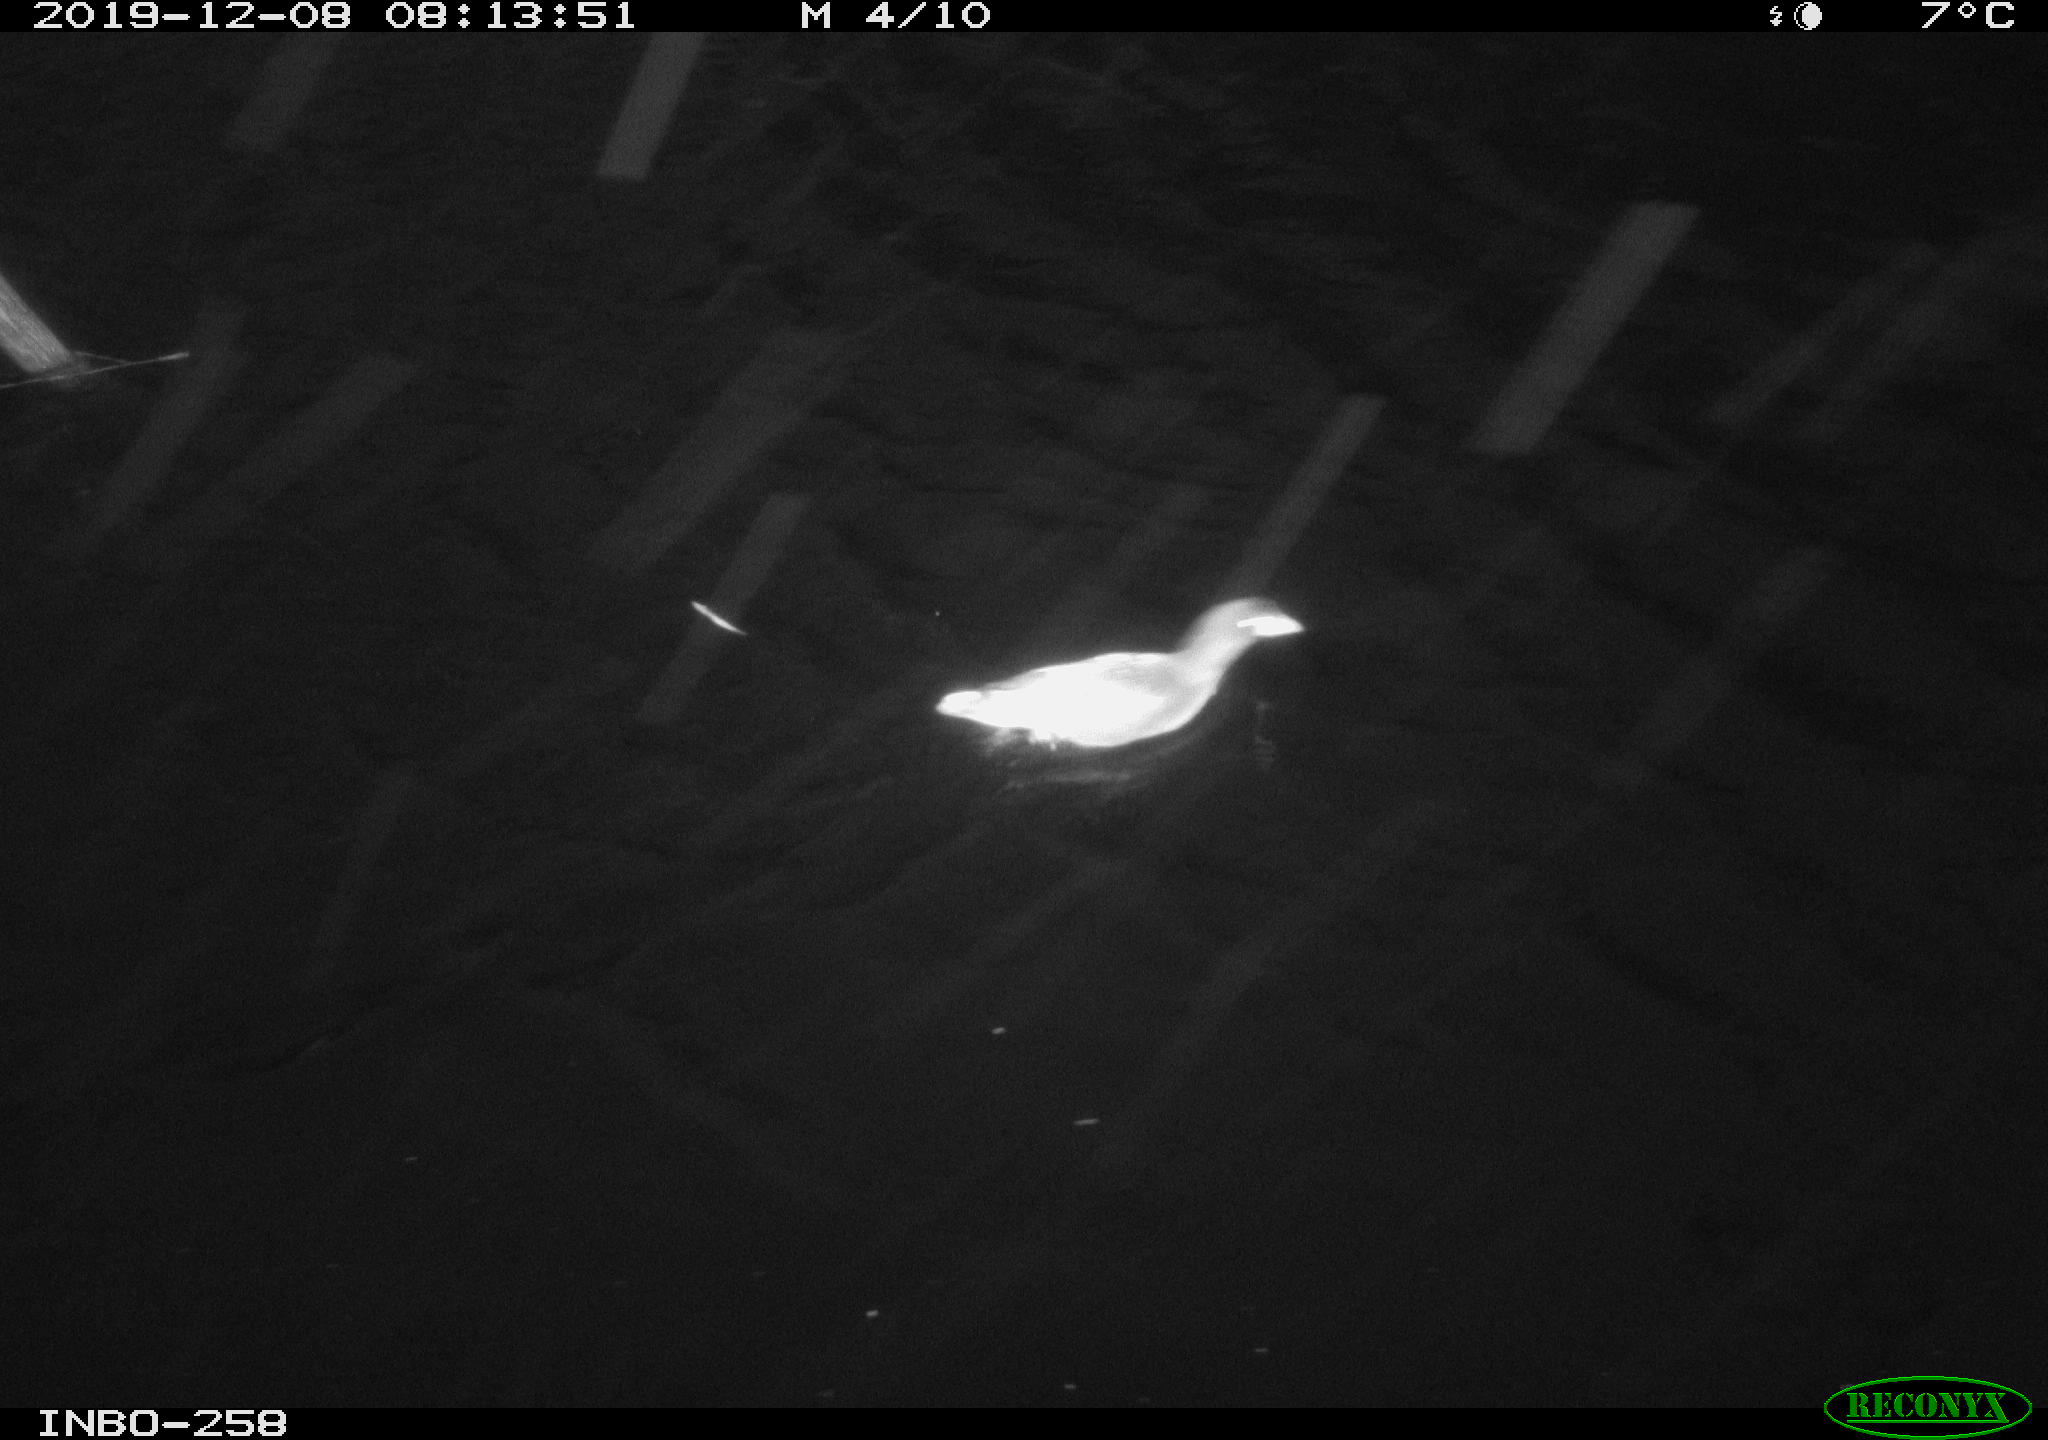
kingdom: Animalia
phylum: Chordata
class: Aves
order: Gruiformes
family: Rallidae
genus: Gallinula
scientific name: Gallinula chloropus
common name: Common moorhen
